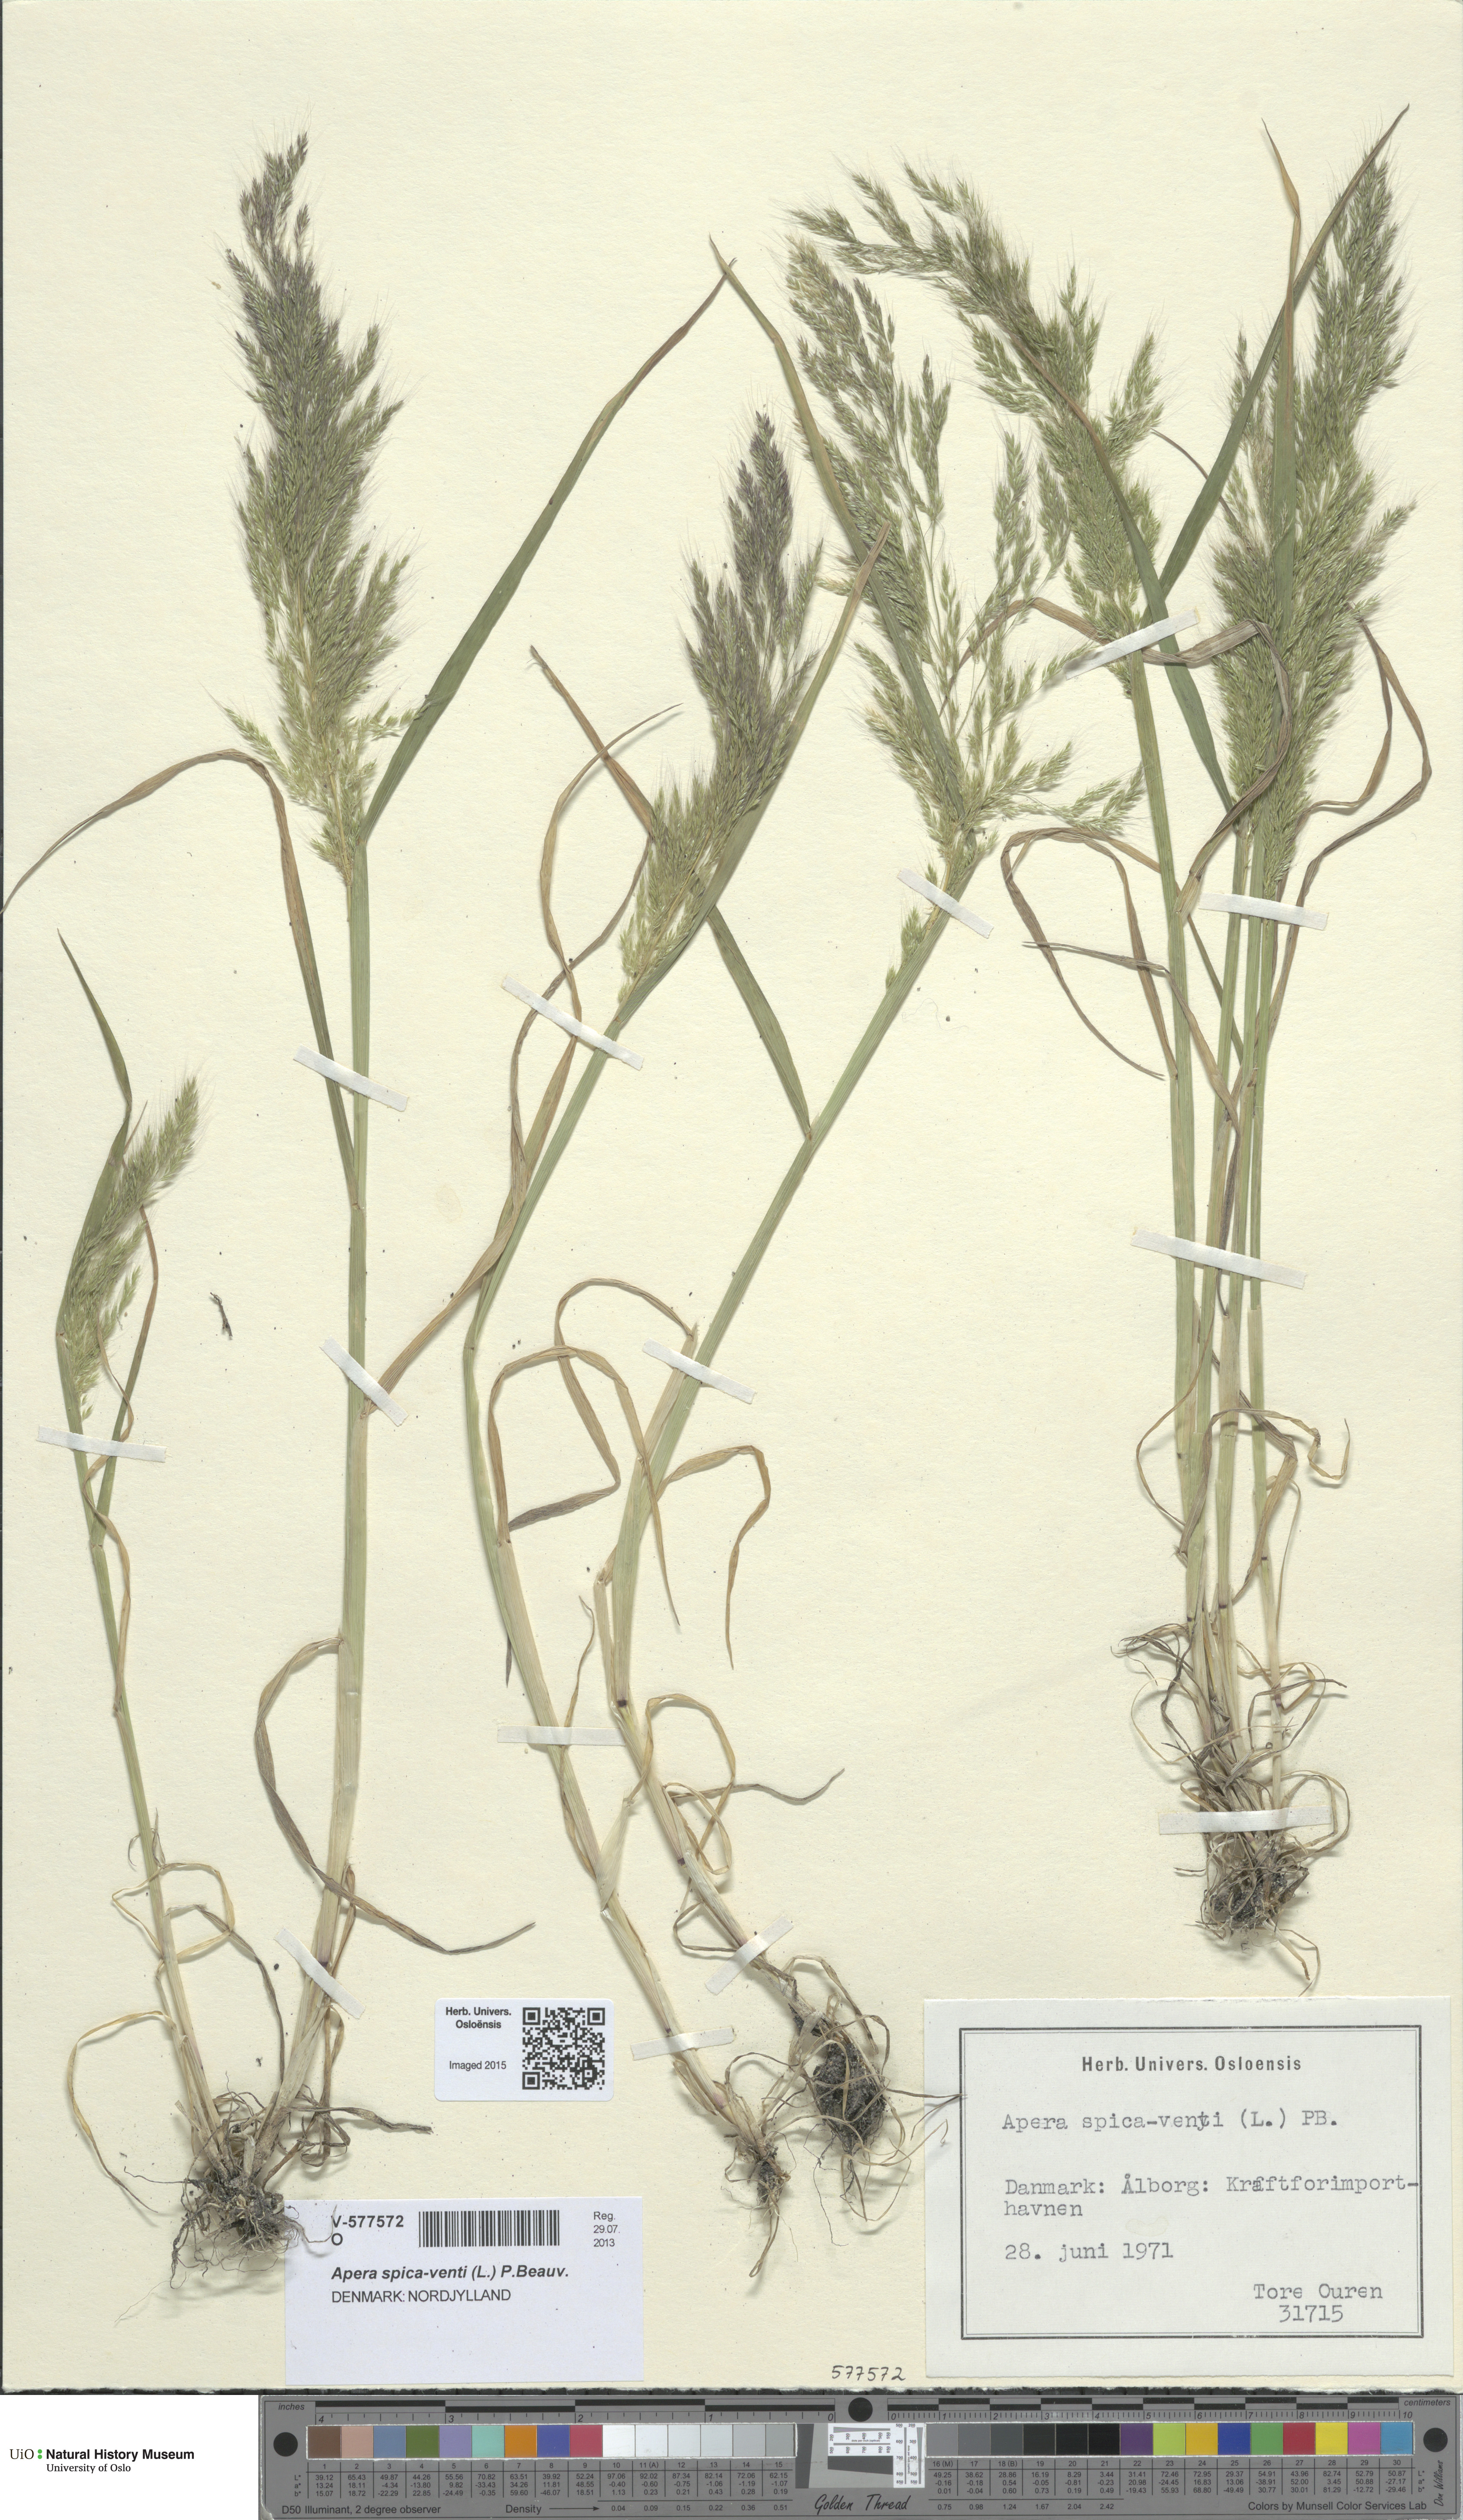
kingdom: Plantae
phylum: Tracheophyta
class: Liliopsida
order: Poales
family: Poaceae
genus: Apera
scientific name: Apera spica-venti
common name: Loose silky-bent
